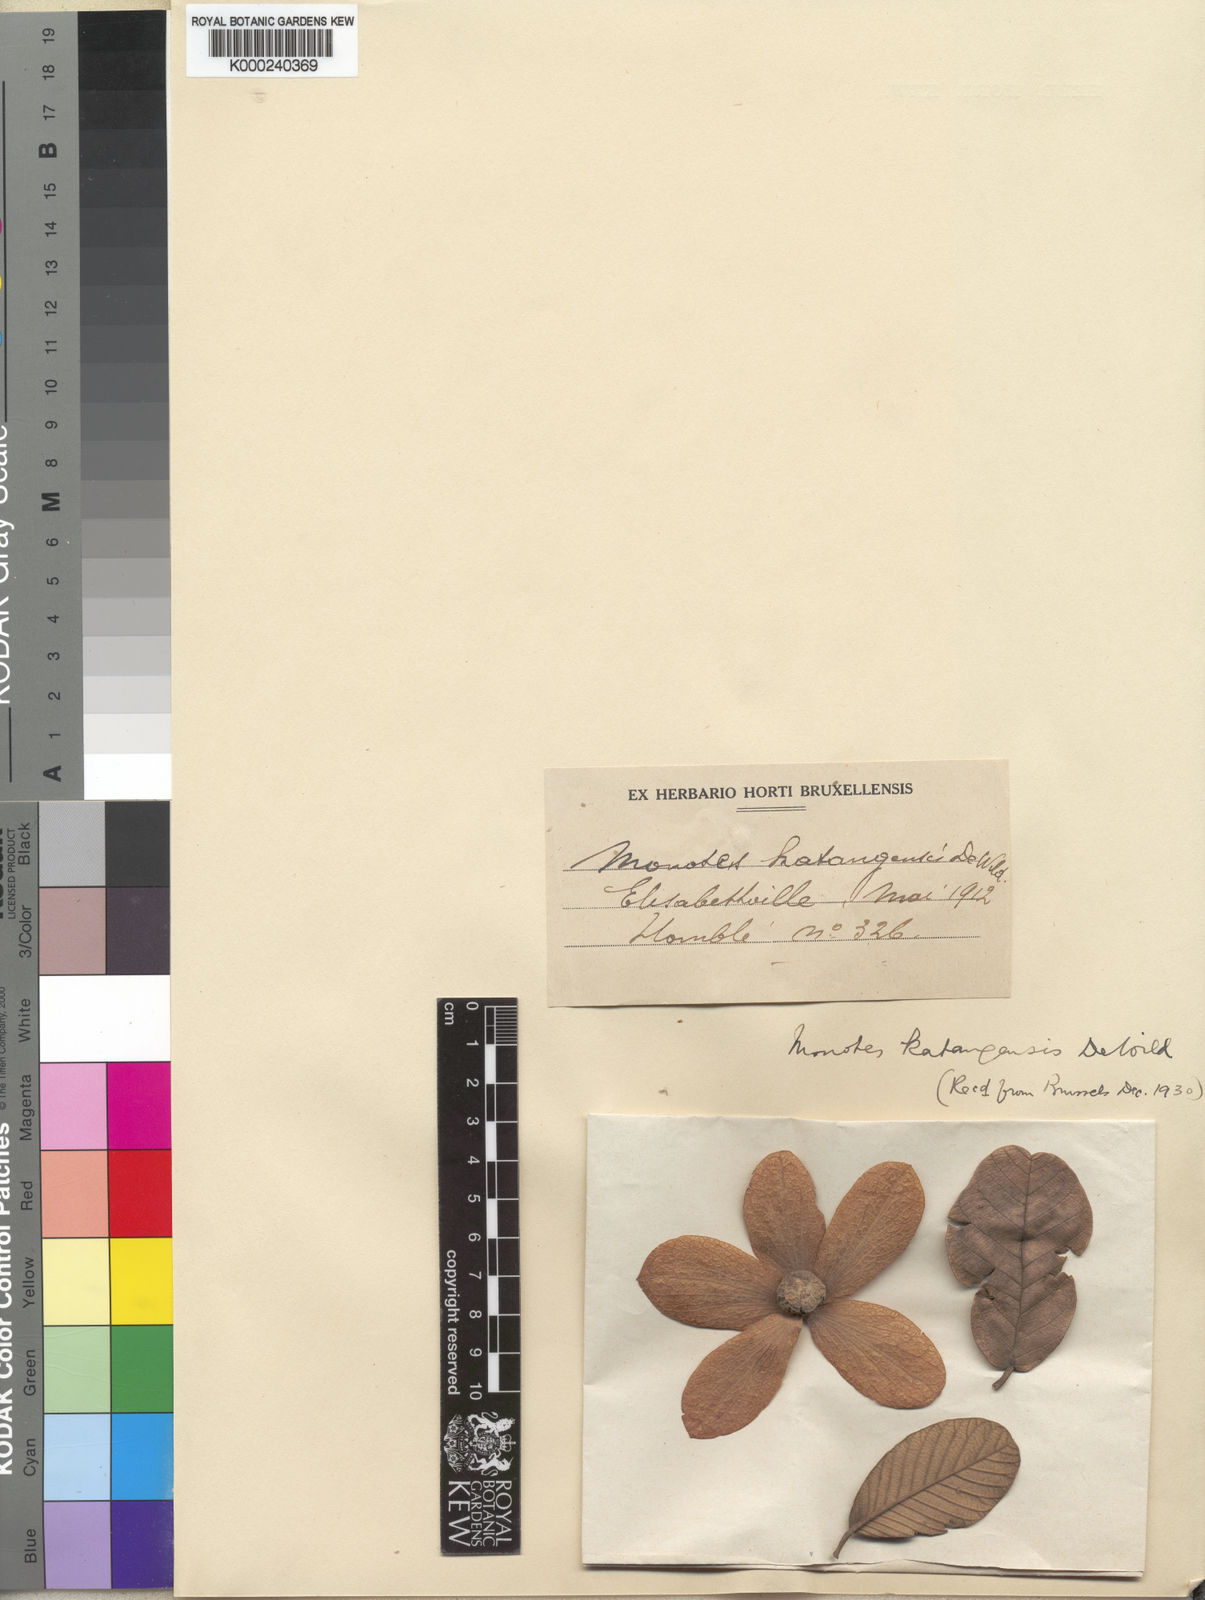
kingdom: Plantae
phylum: Tracheophyta
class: Magnoliopsida
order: Malvales
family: Dipterocarpaceae
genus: Monotes
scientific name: Monotes katangensis
